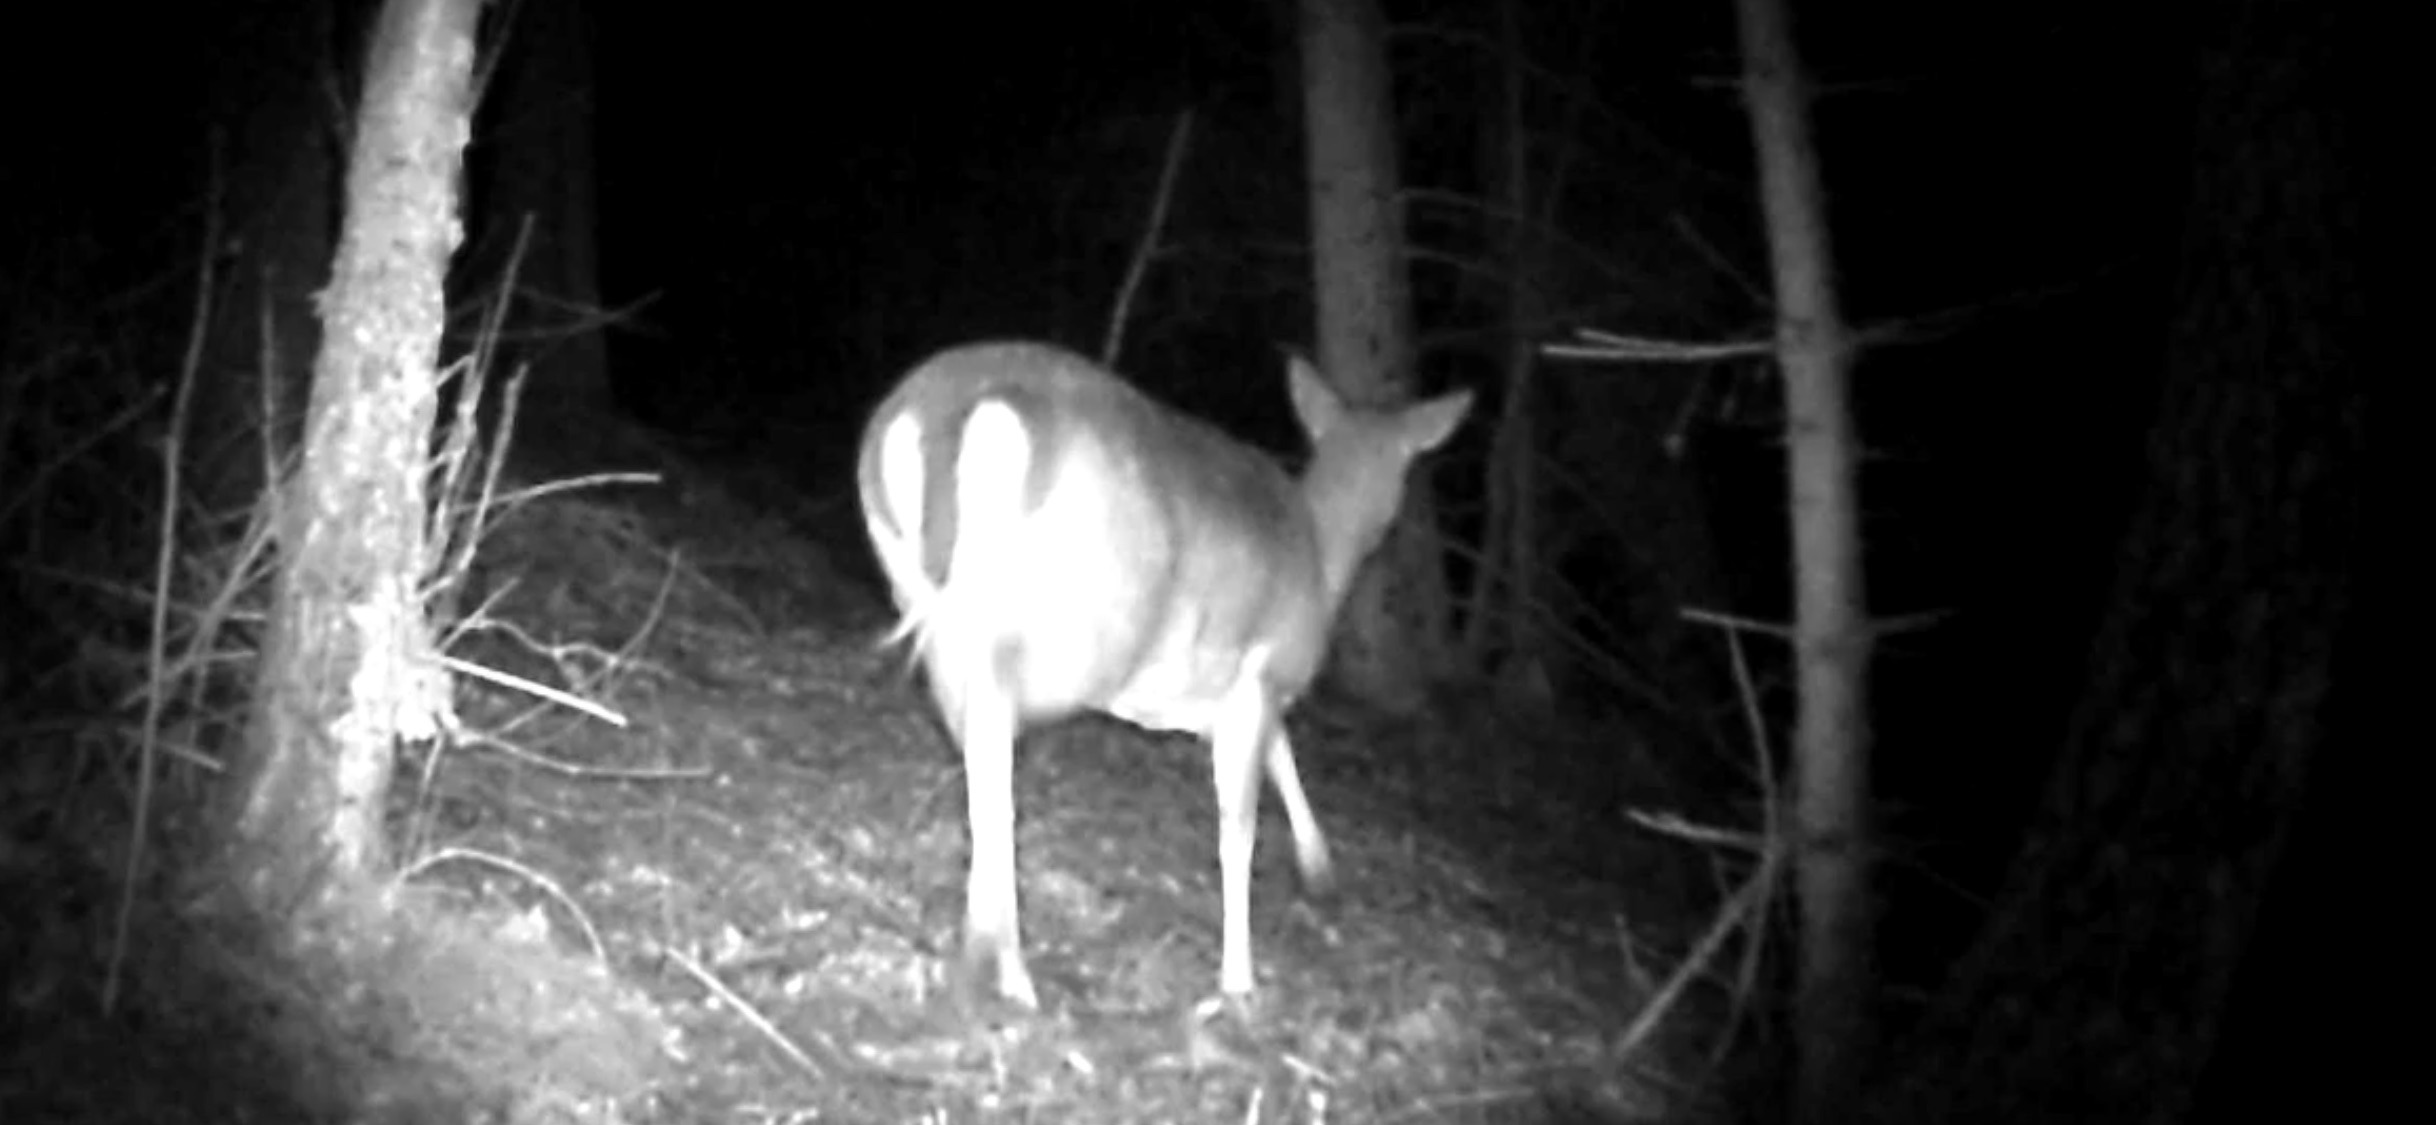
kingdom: Animalia
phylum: Chordata
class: Mammalia
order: Artiodactyla
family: Cervidae
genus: Dama
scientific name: Dama dama
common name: Dådyr
